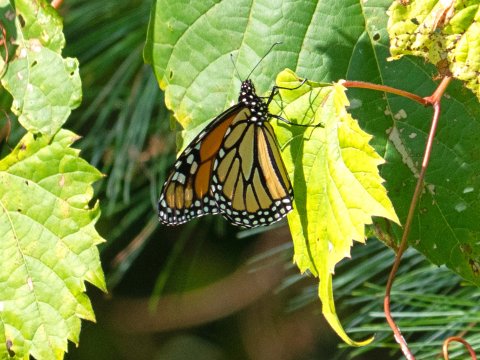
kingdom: Animalia
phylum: Arthropoda
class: Insecta
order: Lepidoptera
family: Nymphalidae
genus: Danaus
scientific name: Danaus plexippus
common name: Monarch
